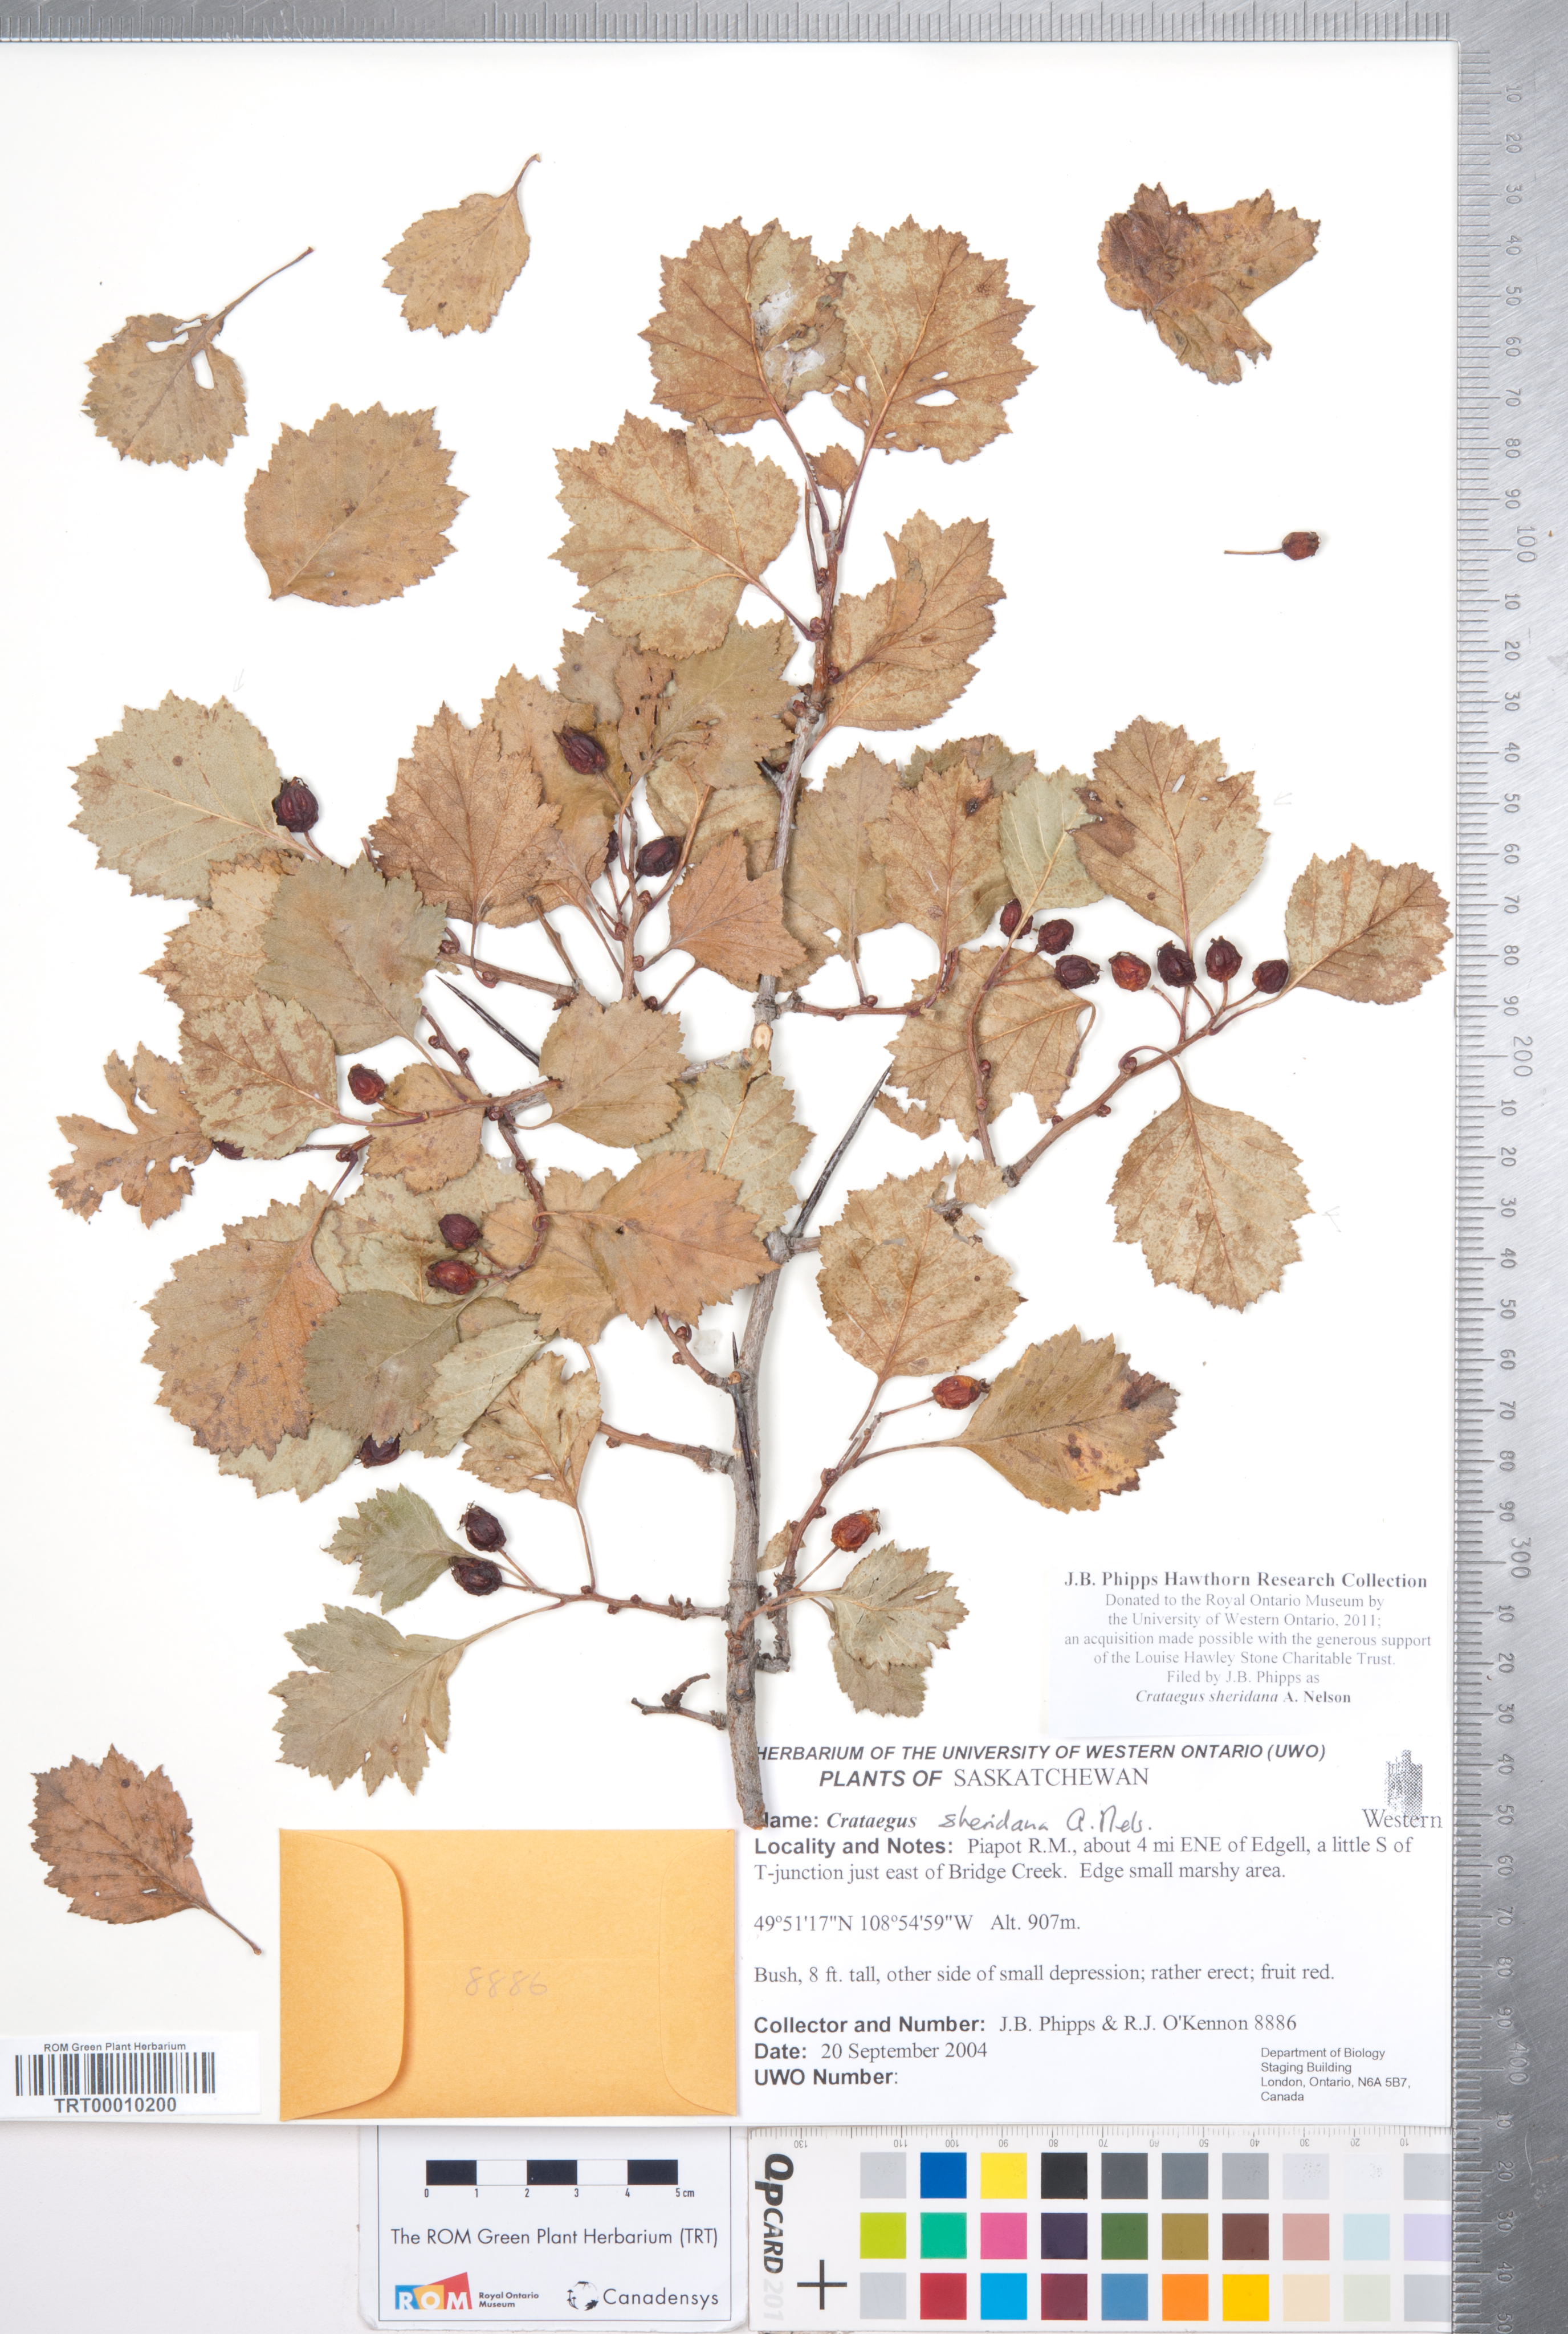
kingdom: Plantae
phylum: Tracheophyta
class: Magnoliopsida
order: Rosales
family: Rosaceae
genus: Crataegus
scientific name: Crataegus chrysocarpa
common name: Fire-berry hawthorn
